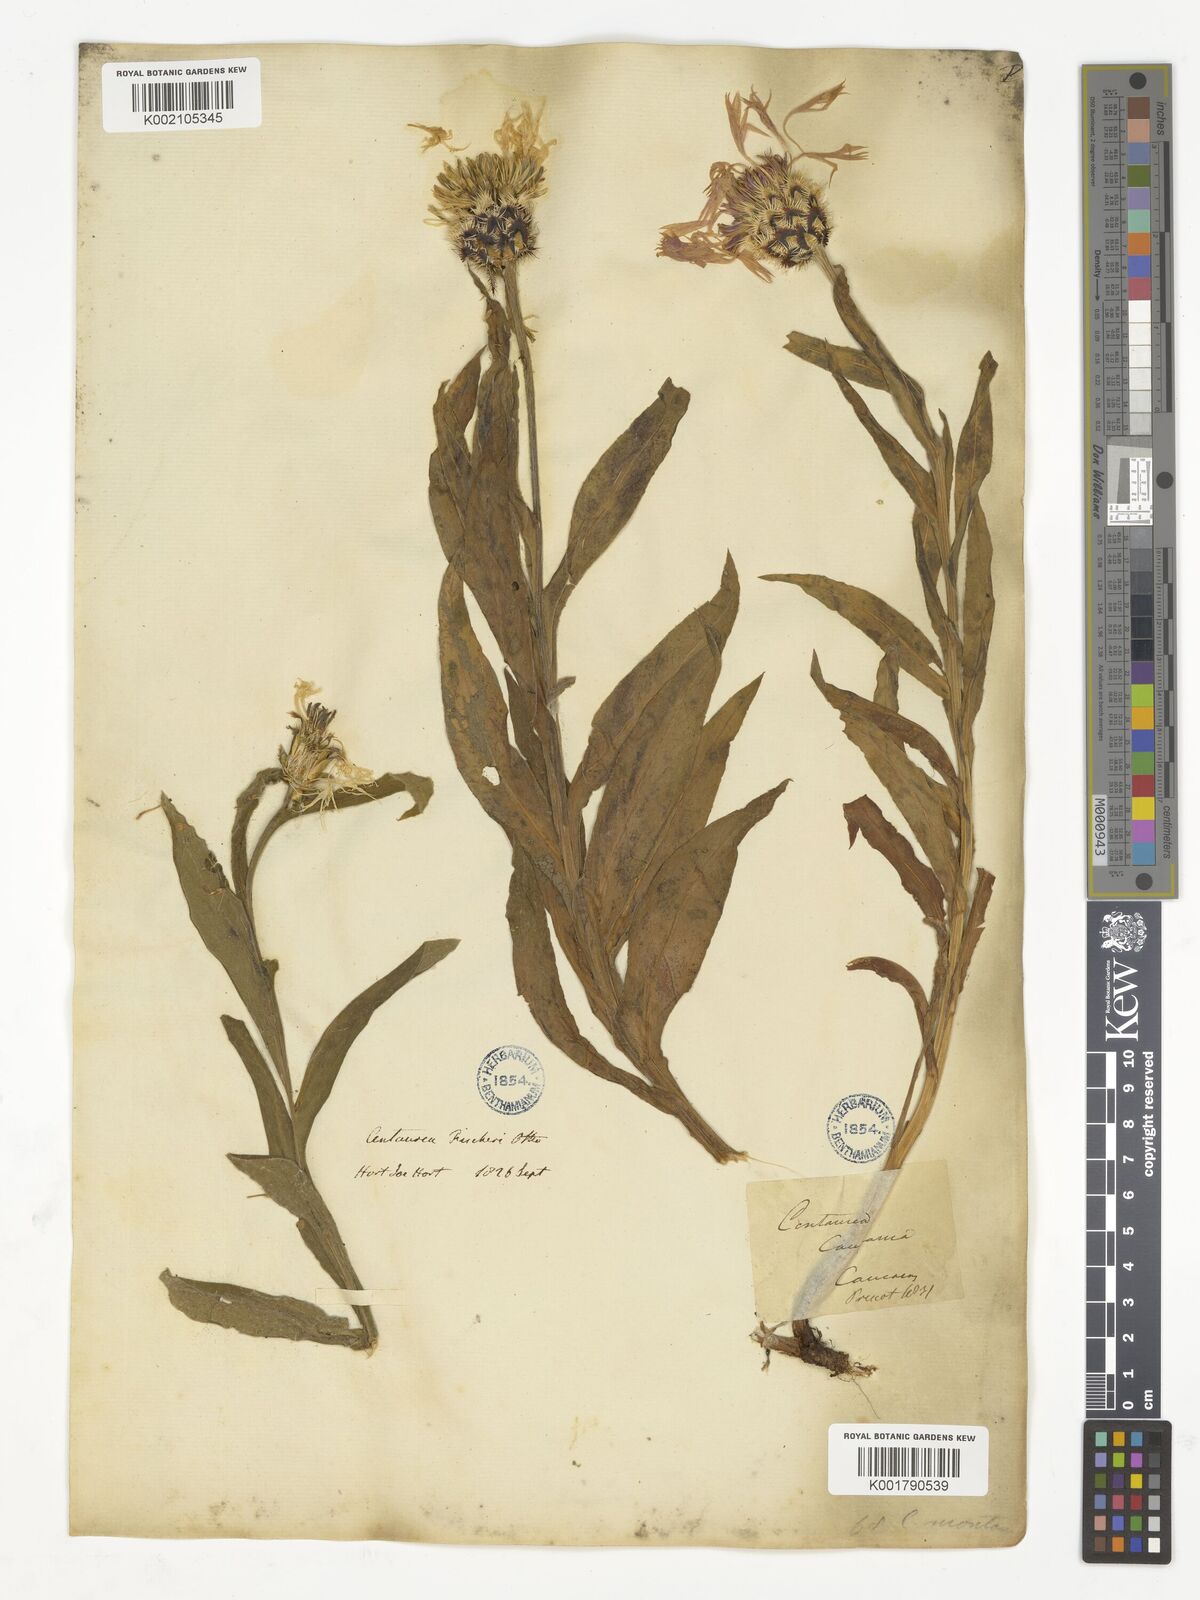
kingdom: Plantae
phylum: Tracheophyta
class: Magnoliopsida
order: Asterales
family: Asteraceae
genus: Centaurea
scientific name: Centaurea
